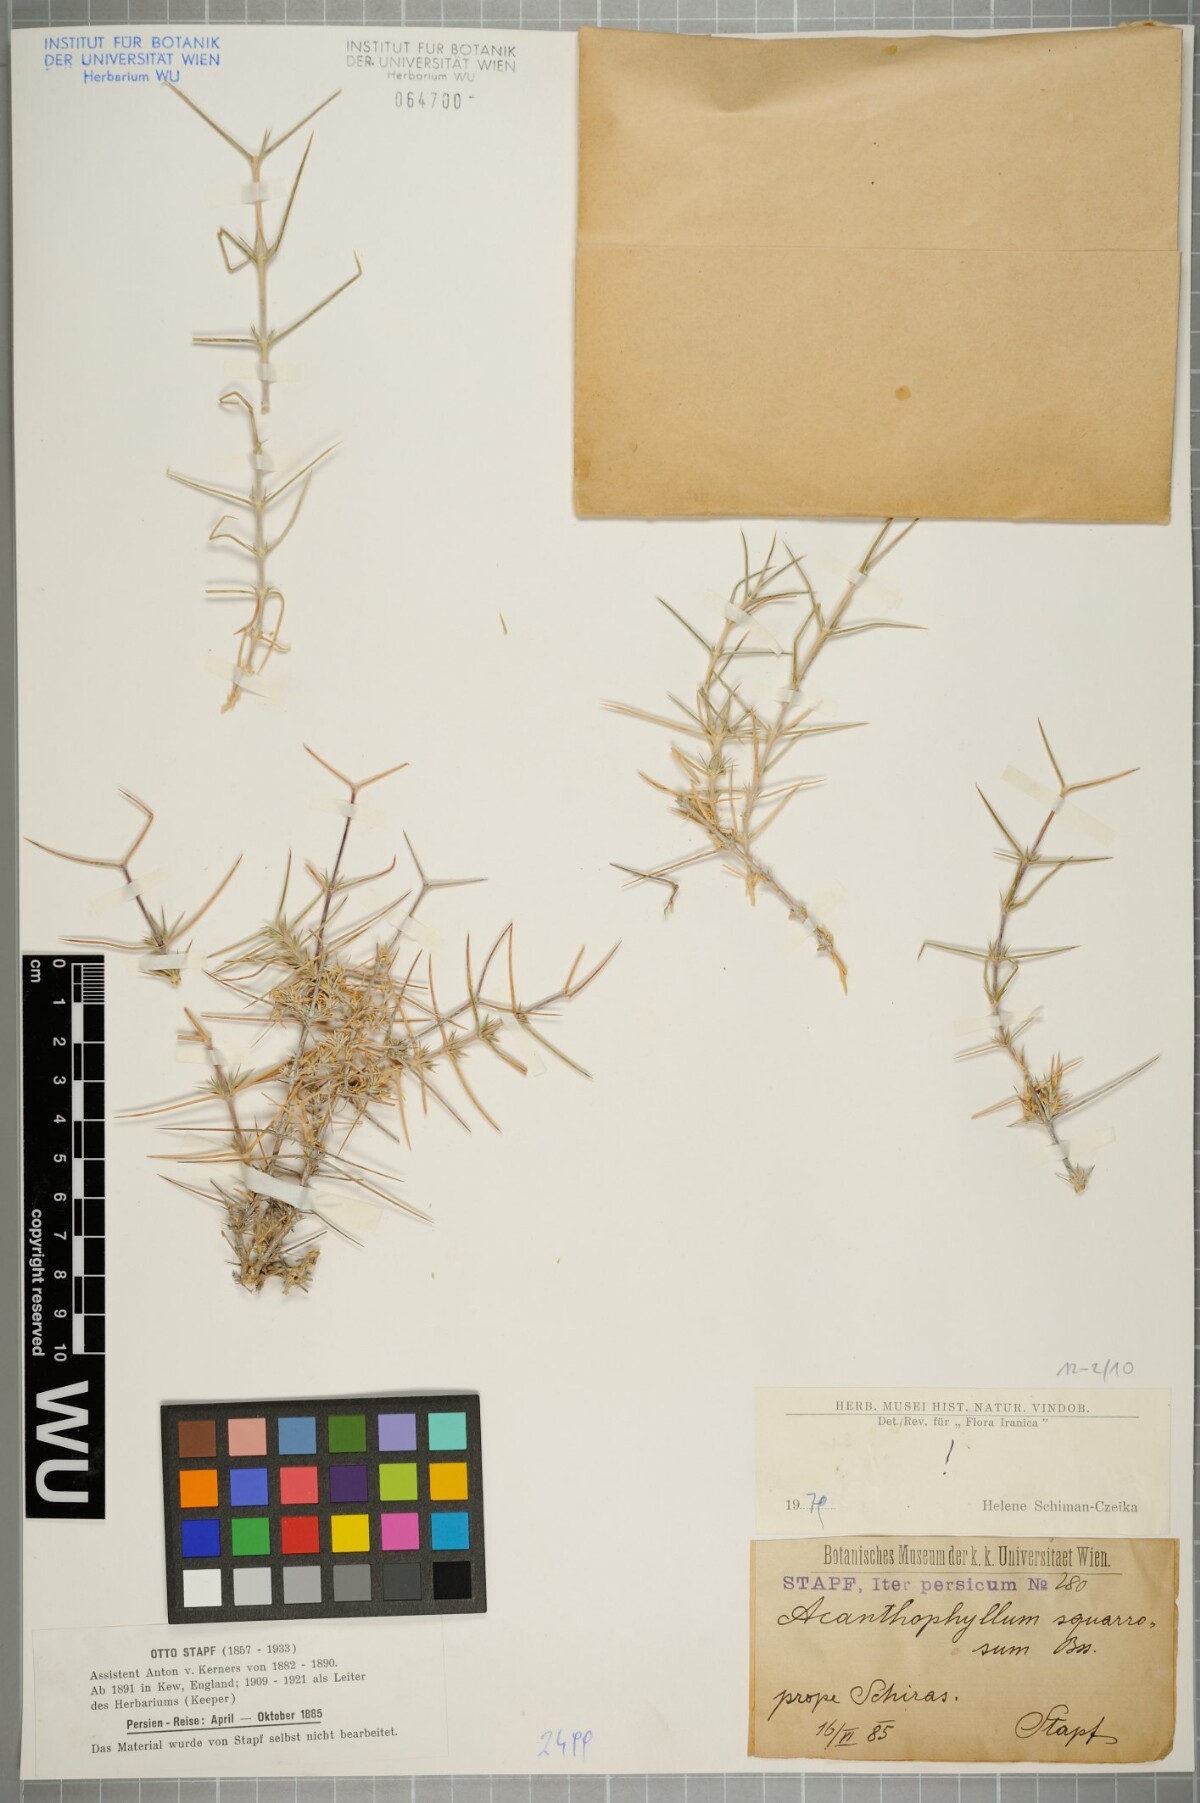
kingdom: Plantae
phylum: Tracheophyta
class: Magnoliopsida
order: Caryophyllales
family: Caryophyllaceae
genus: Acanthophyllum
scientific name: Acanthophyllum squarrosum
